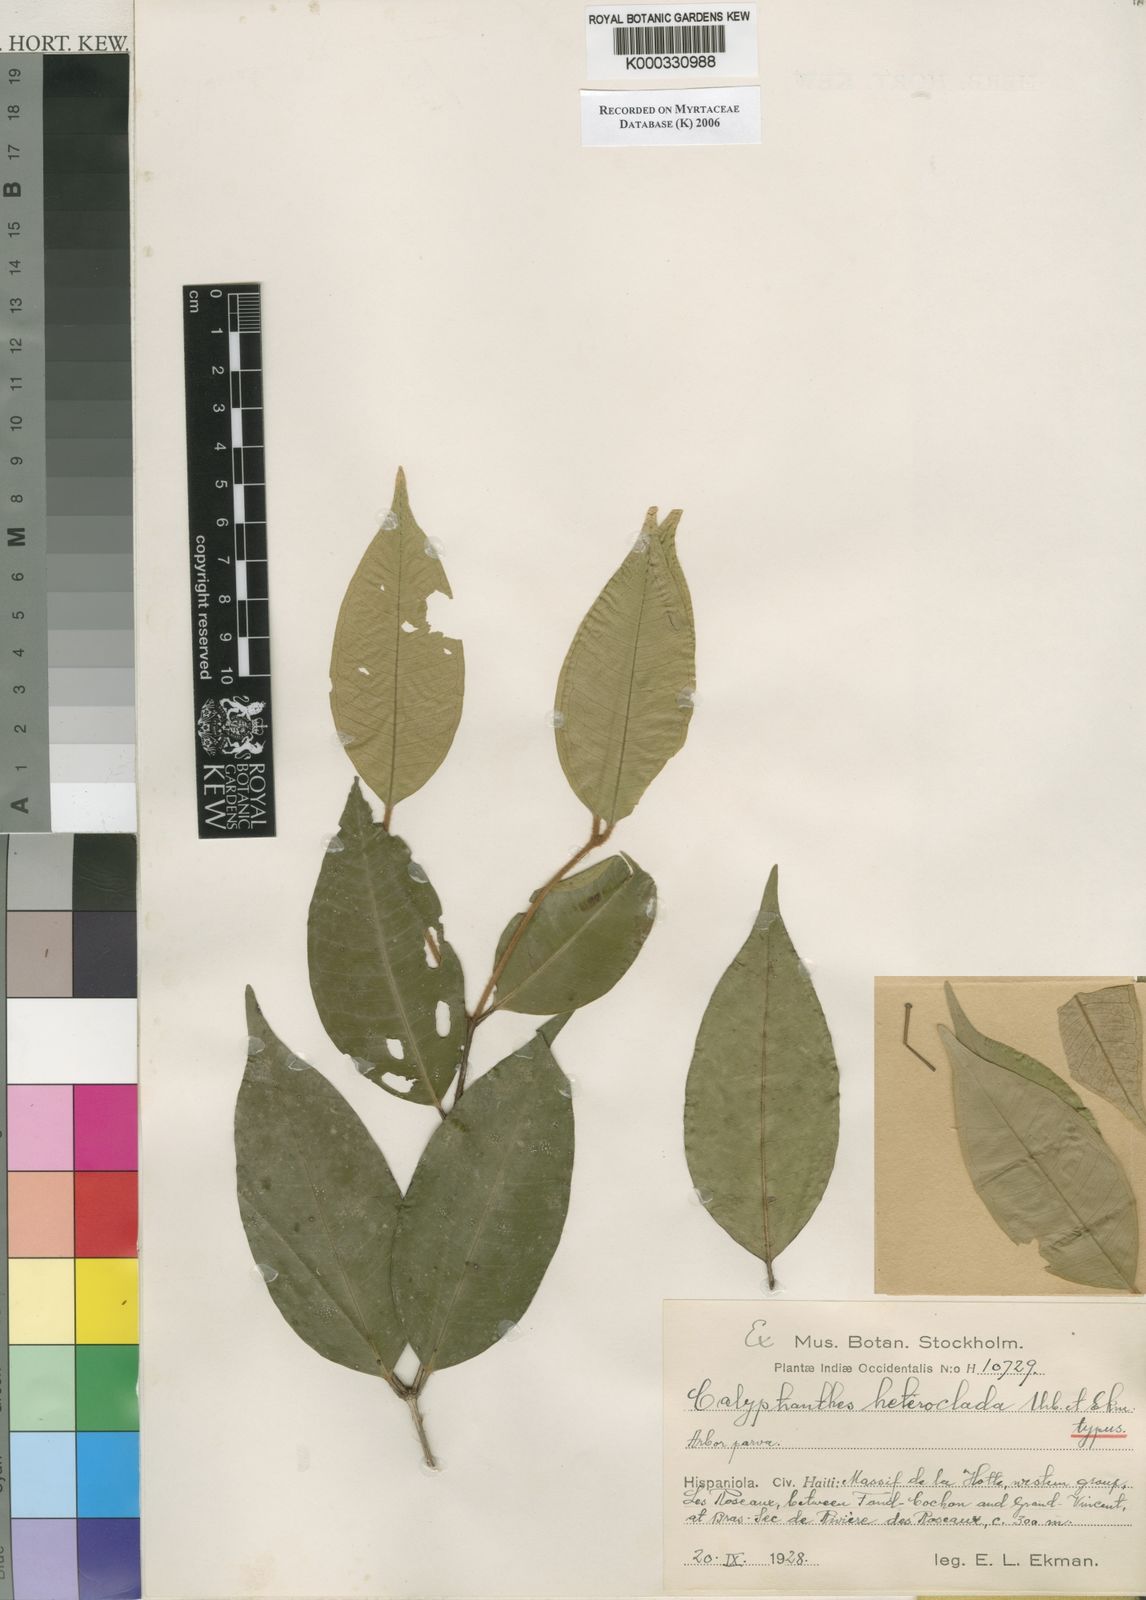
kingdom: Plantae
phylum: Tracheophyta
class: Magnoliopsida
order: Myrtales
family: Myrtaceae
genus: Myrcia
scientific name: Myrcia heteroclada
